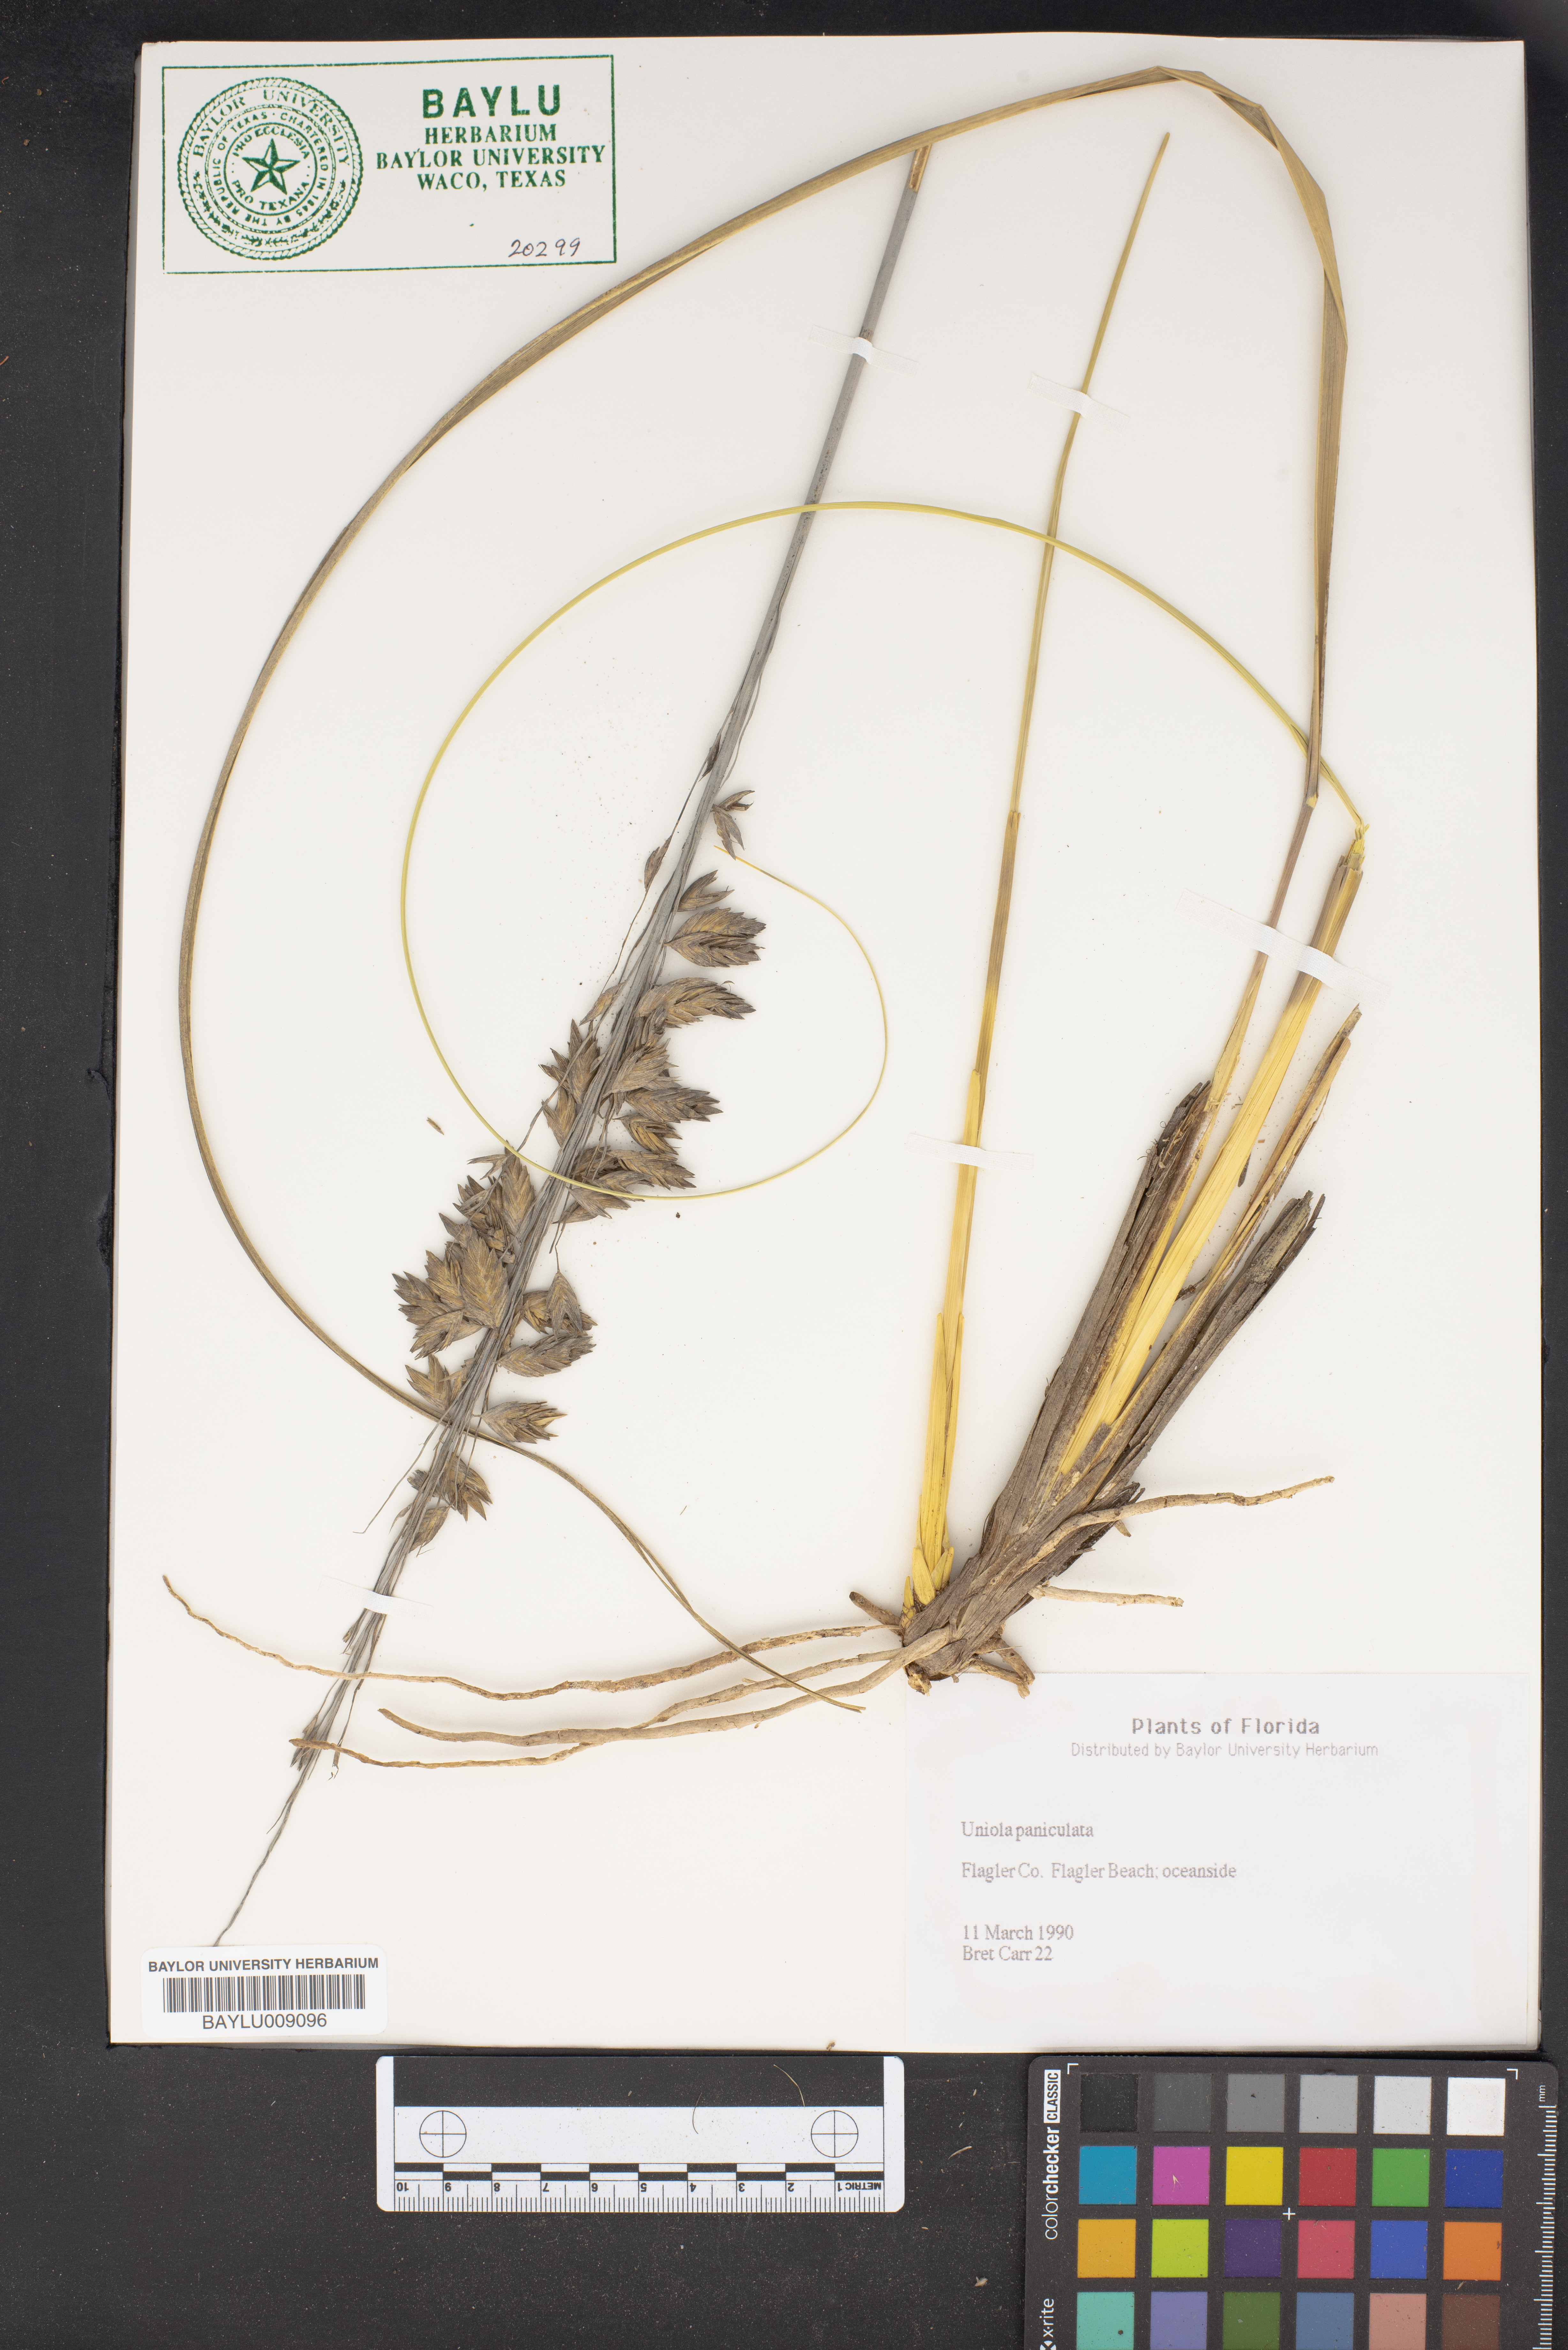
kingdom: Plantae
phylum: Tracheophyta
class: Liliopsida
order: Poales
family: Poaceae
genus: Uniola
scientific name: Uniola paniculata
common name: Seaside-oats
